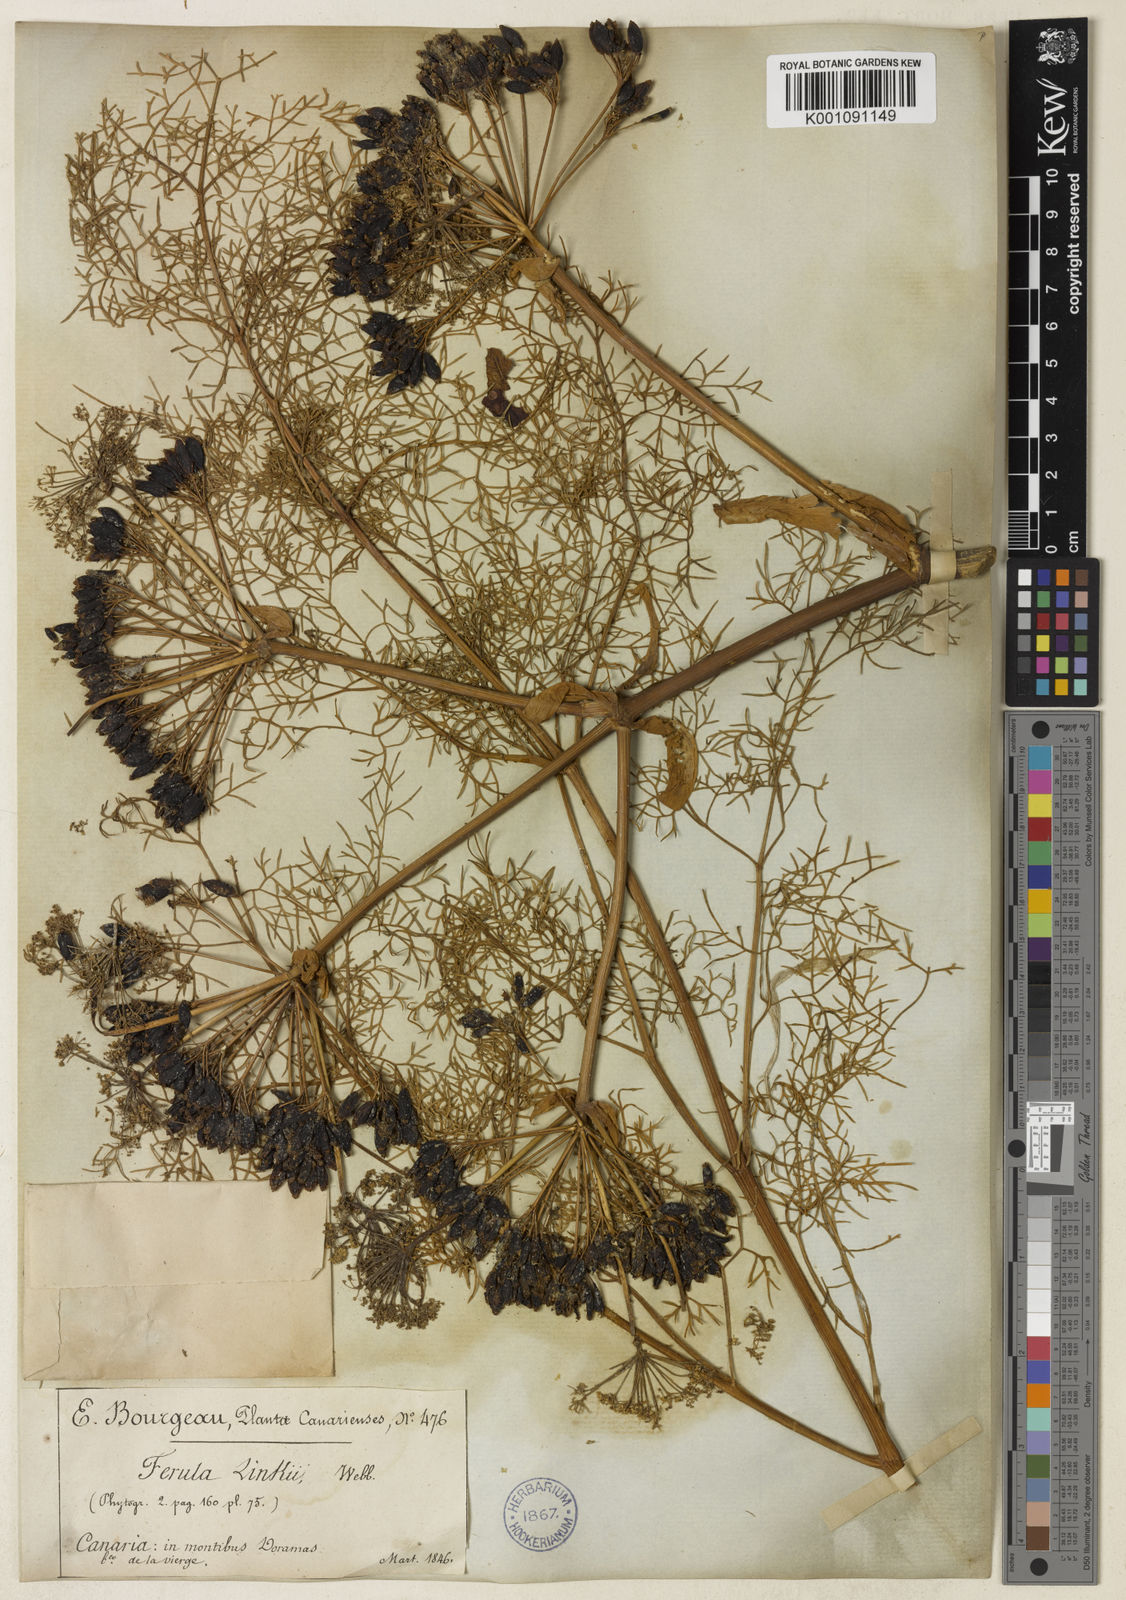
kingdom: Plantae
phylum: Tracheophyta
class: Magnoliopsida
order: Apiales
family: Apiaceae
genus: Ferula
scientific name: Ferula communis
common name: Giant fennel
